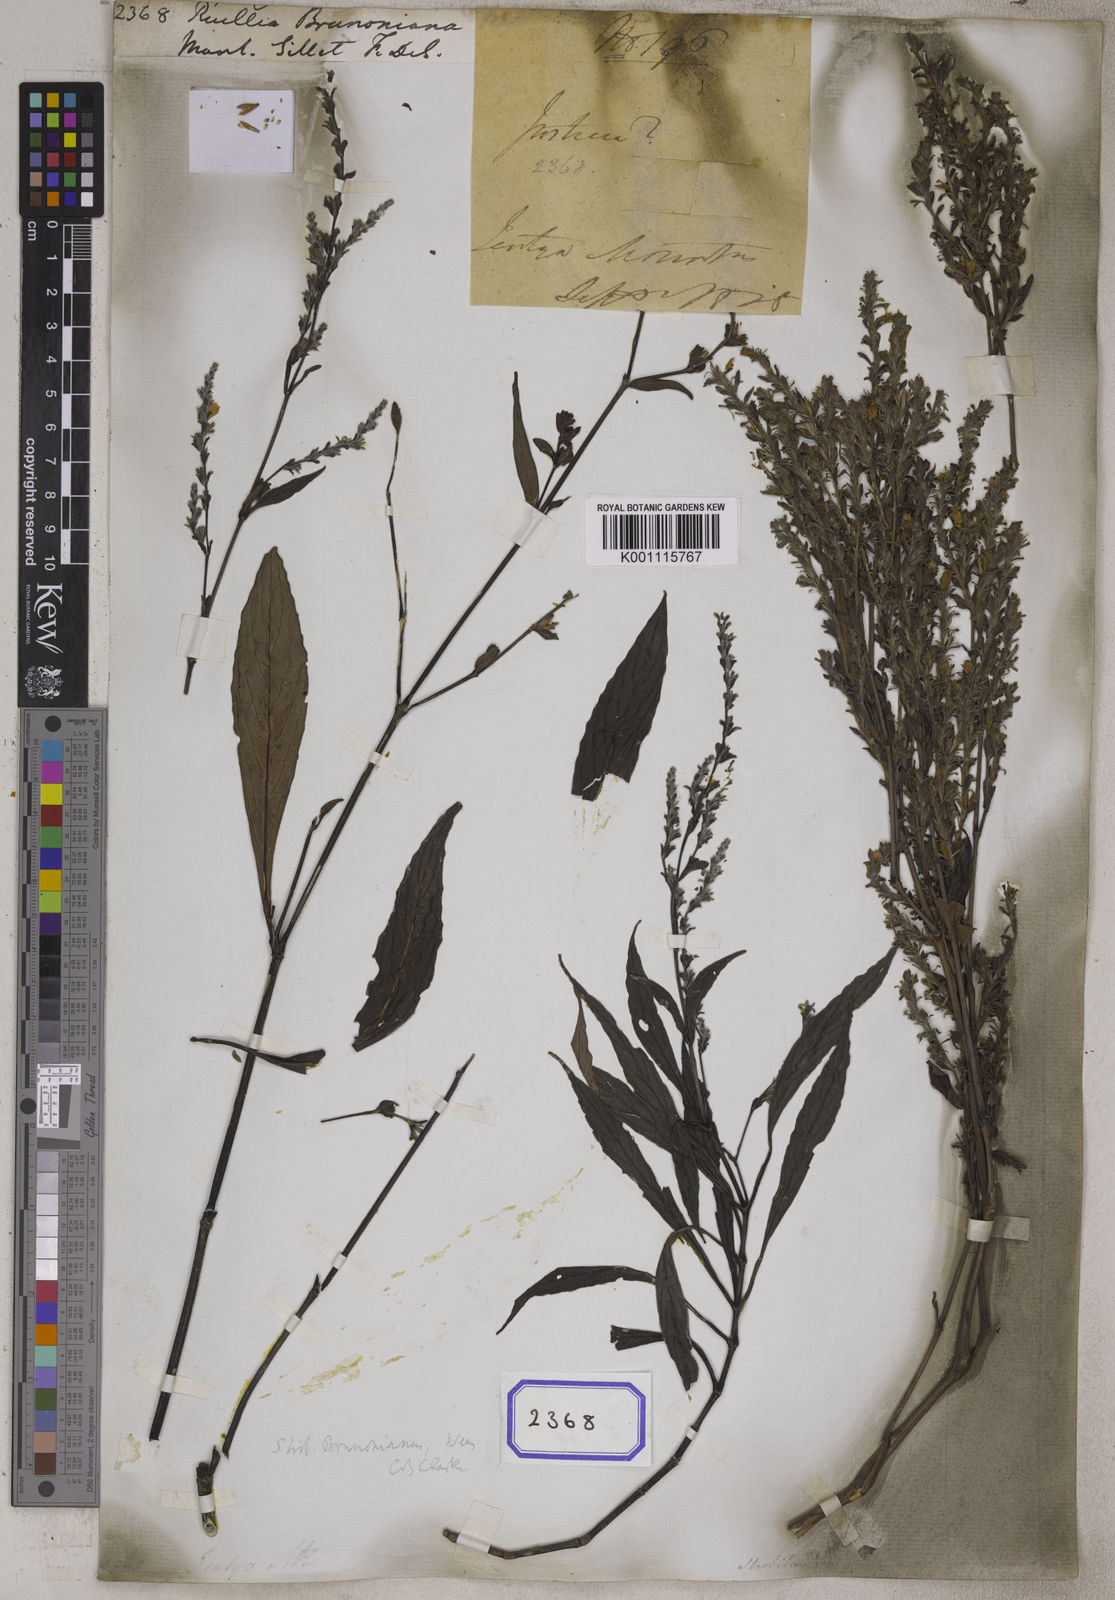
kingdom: Plantae
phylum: Tracheophyta
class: Magnoliopsida
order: Lamiales
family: Acanthaceae
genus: Strobilanthes
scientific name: Strobilanthes brunoniana
